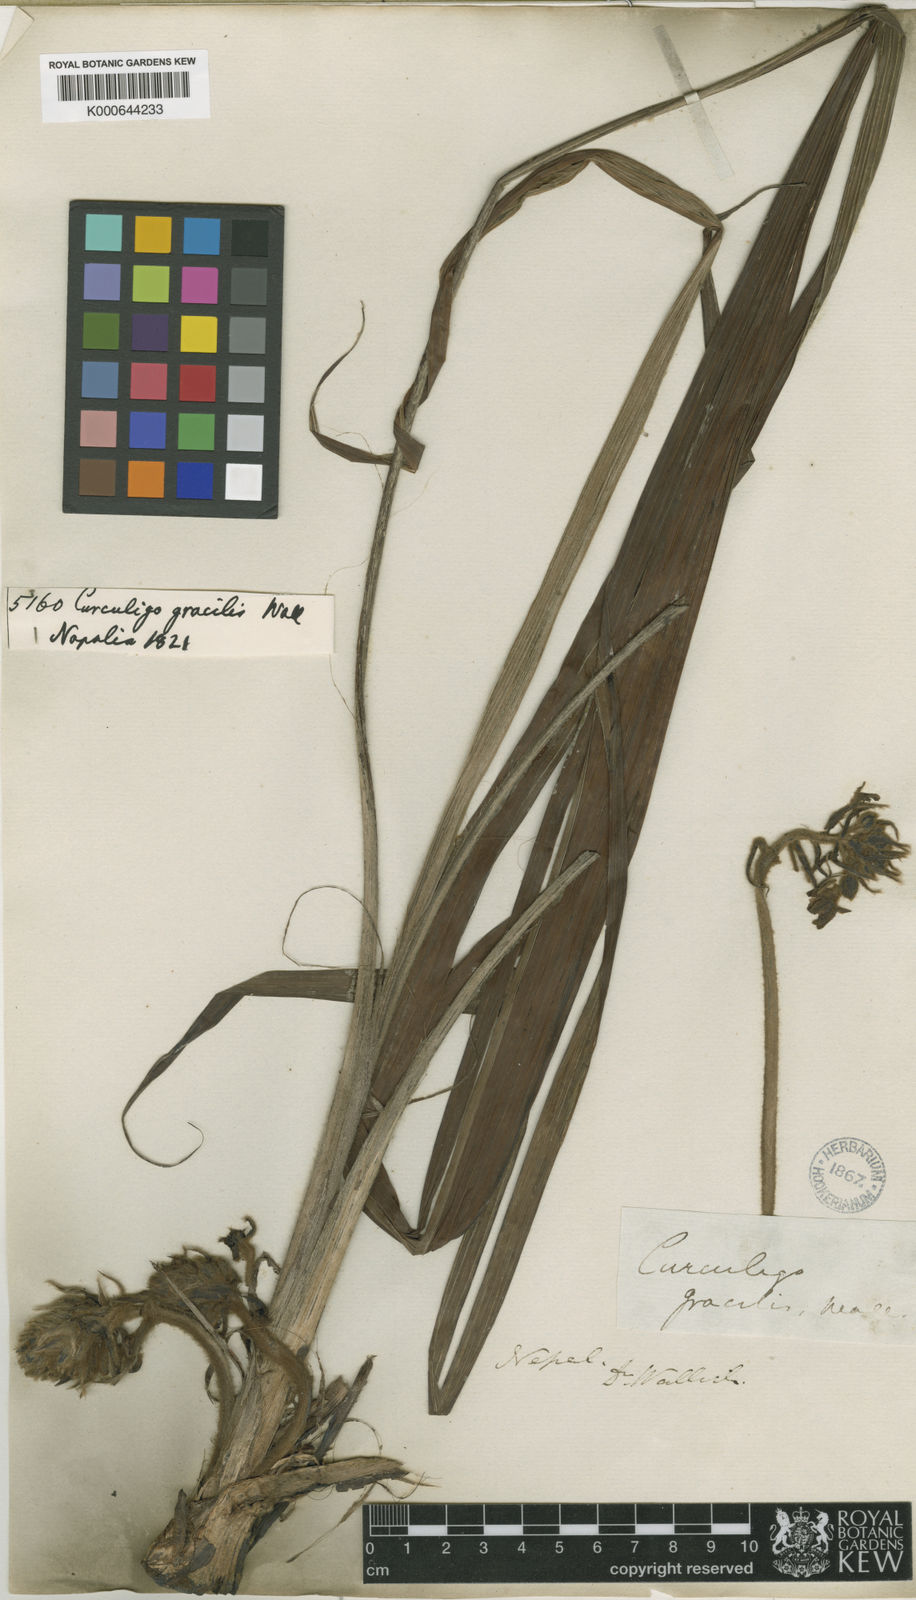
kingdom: Plantae
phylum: Tracheophyta
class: Liliopsida
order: Asparagales
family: Hypoxidaceae
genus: Curculigo
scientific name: Curculigo gracilis
